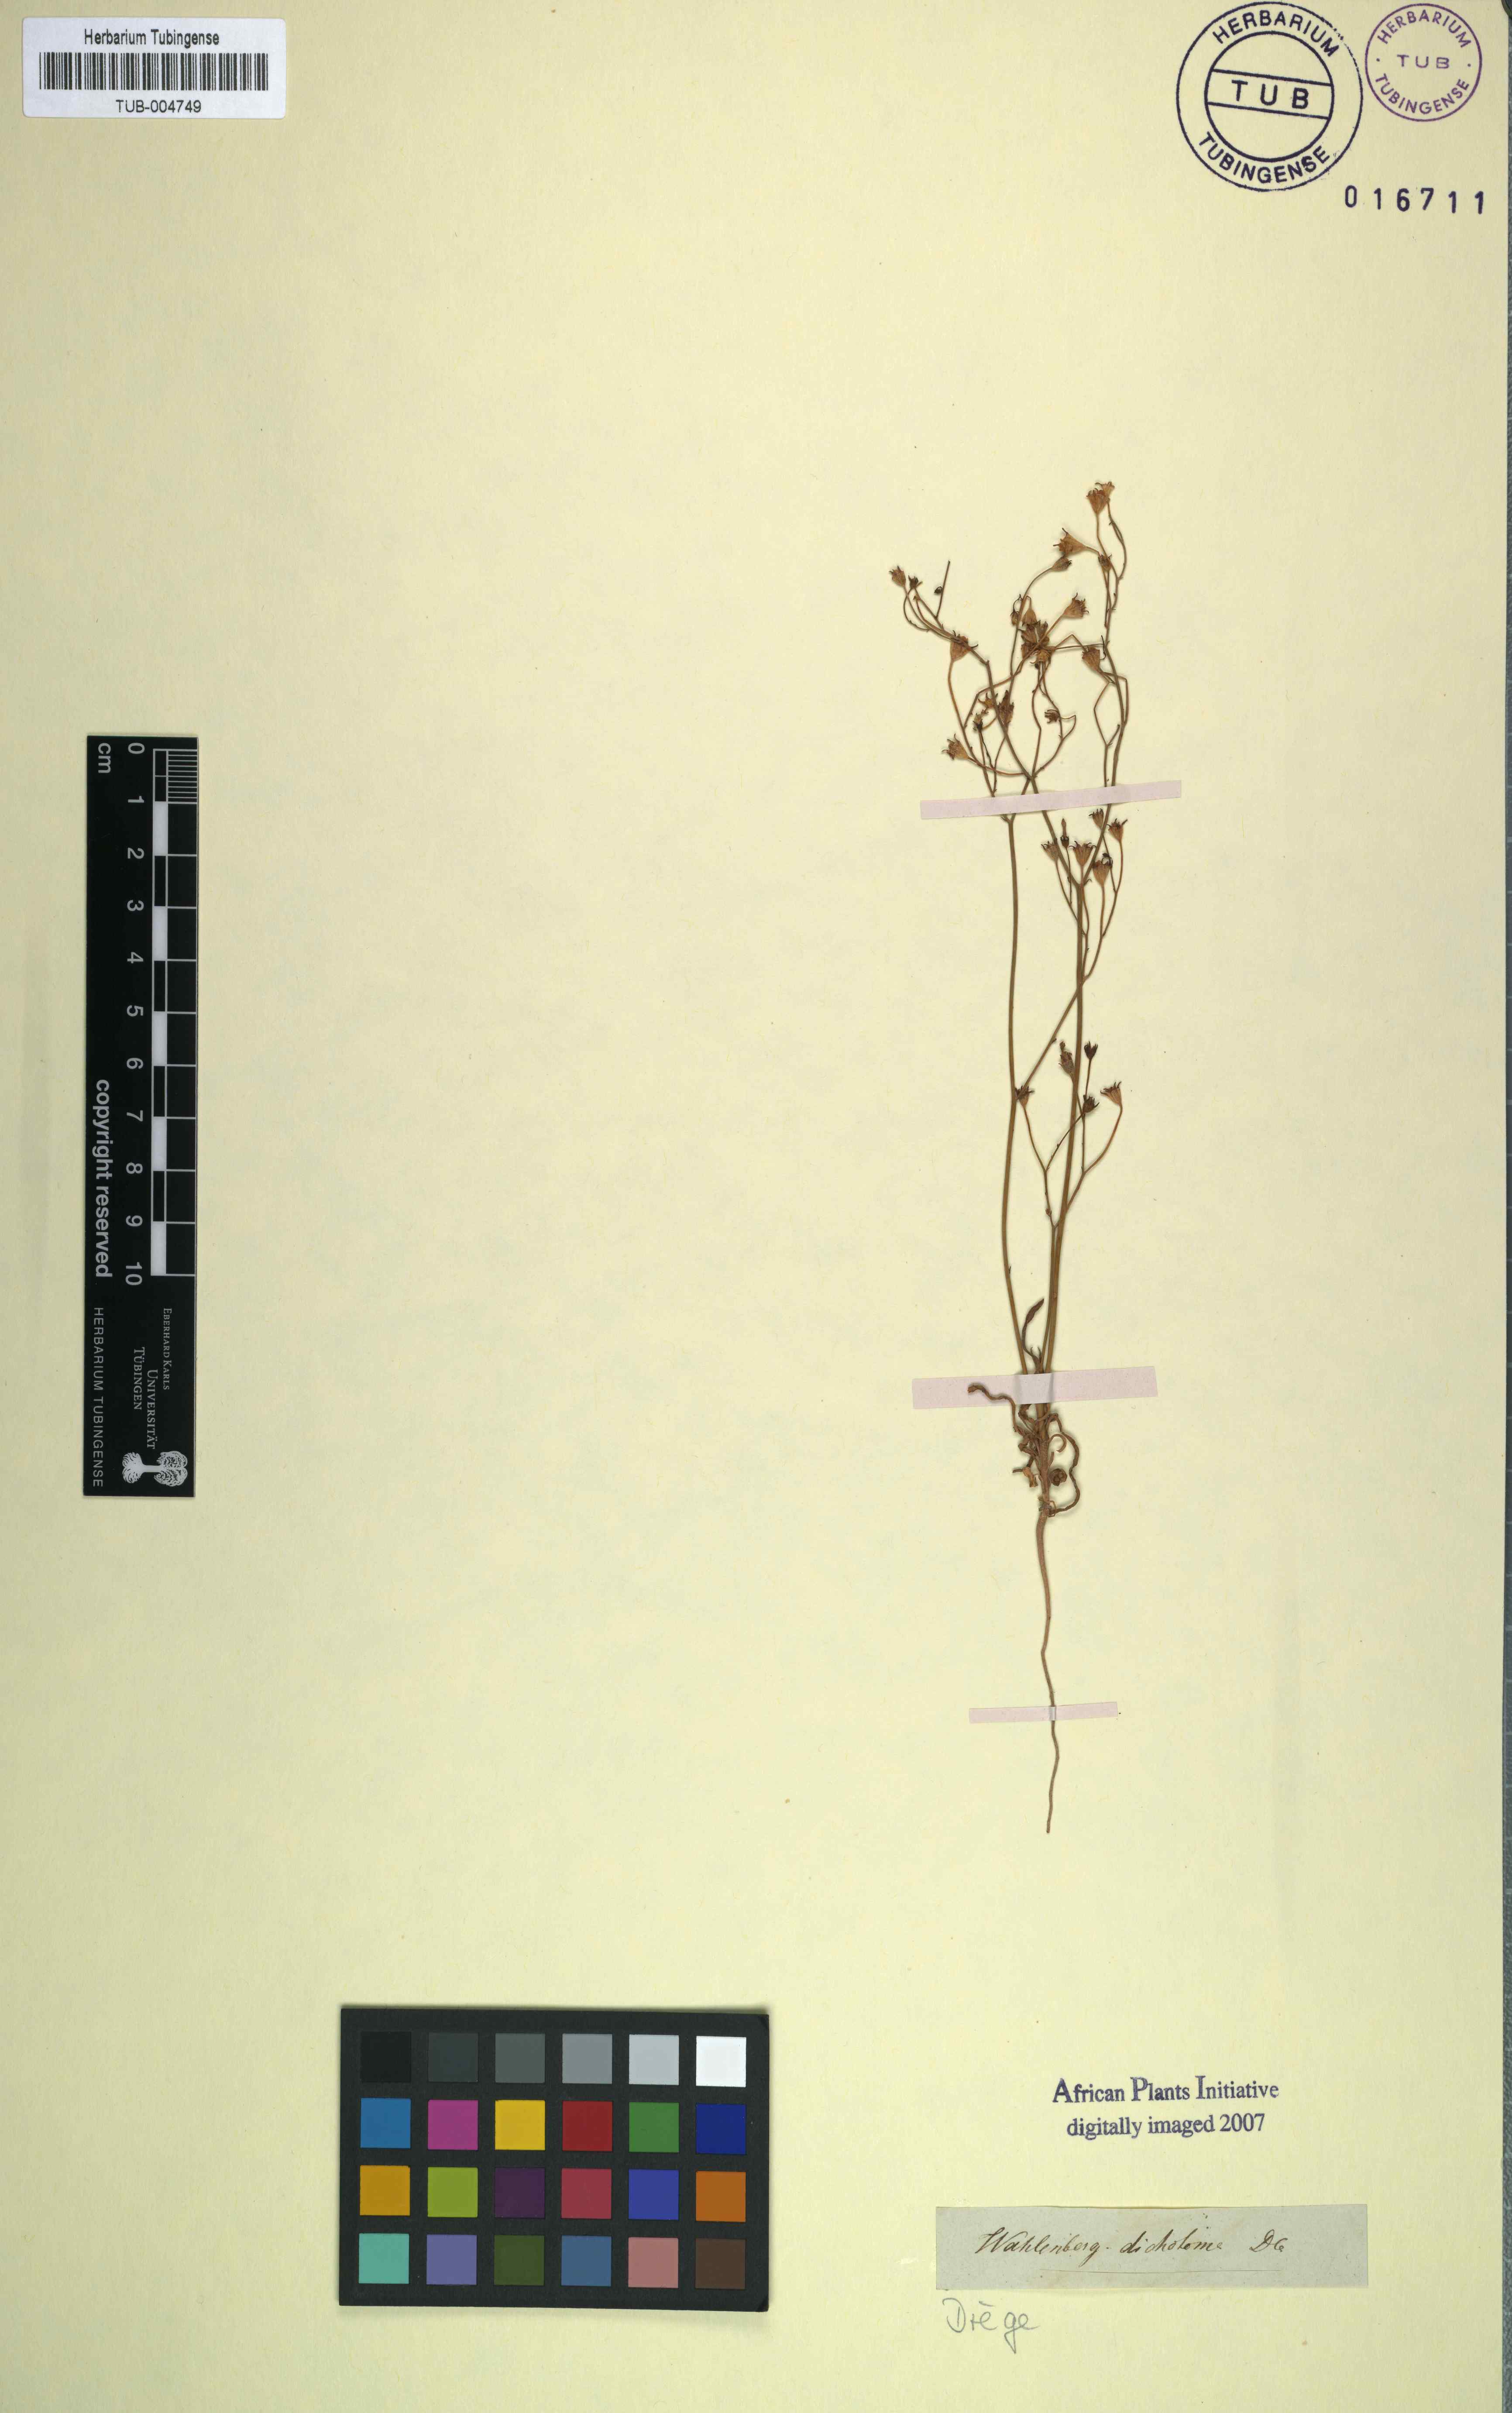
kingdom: Plantae
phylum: Tracheophyta
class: Magnoliopsida
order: Asterales
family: Campanulaceae
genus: Wahlenbergia
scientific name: Wahlenbergia androsacea
